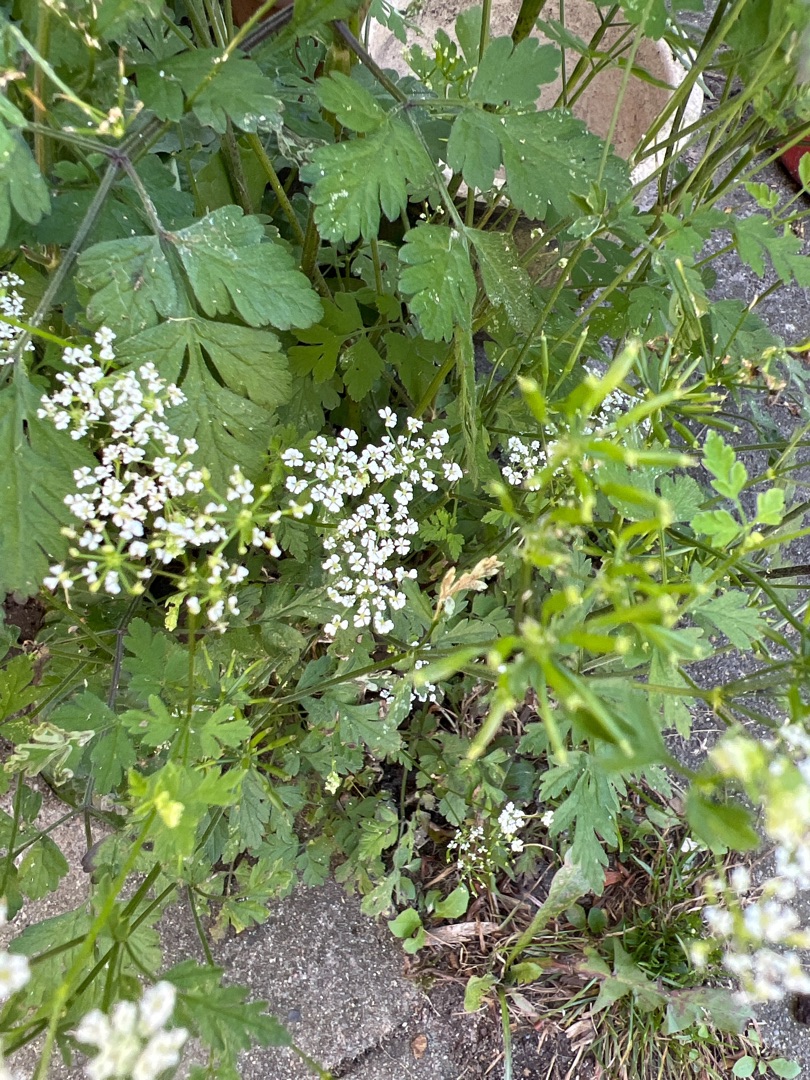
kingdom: Plantae
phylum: Tracheophyta
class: Magnoliopsida
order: Apiales
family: Apiaceae
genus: Chaerophyllum
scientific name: Chaerophyllum temulum
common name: Almindelig hulsvøb
